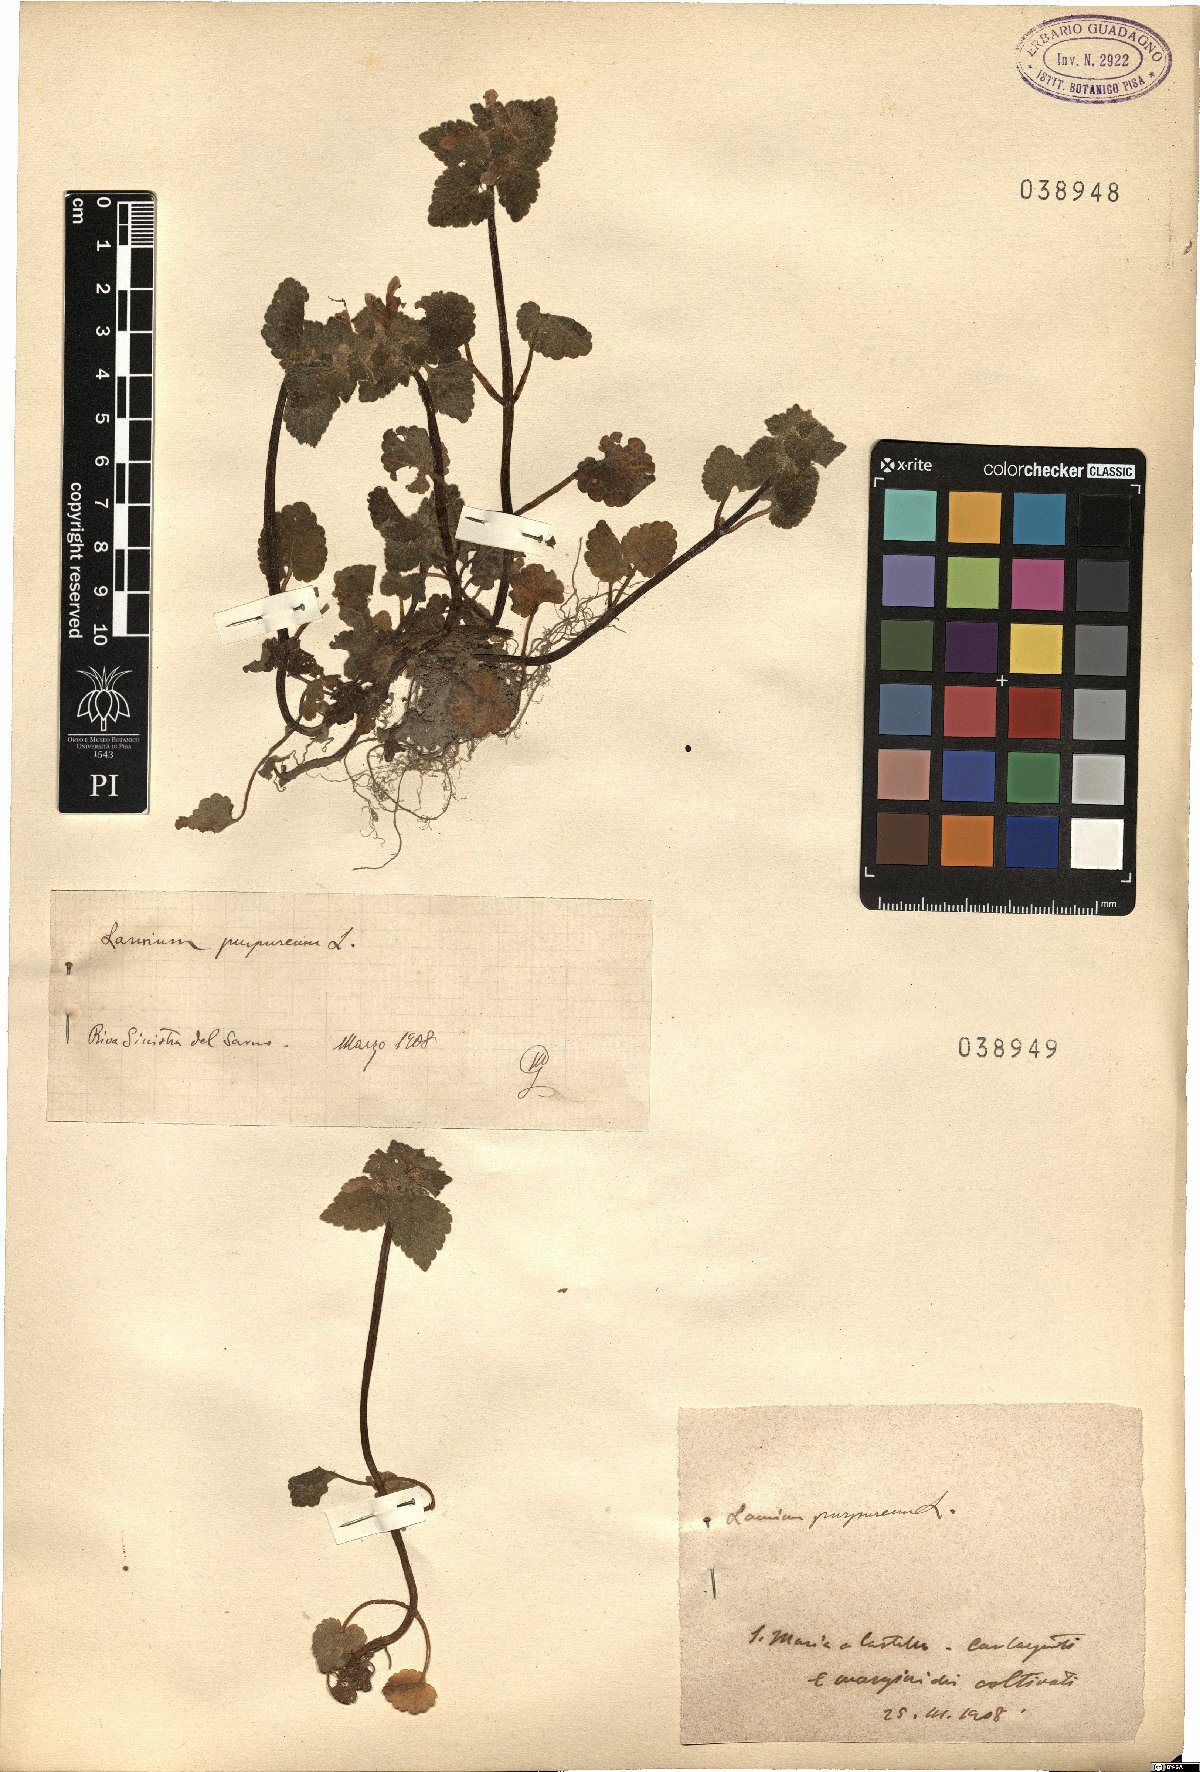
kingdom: Plantae
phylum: Tracheophyta
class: Magnoliopsida
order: Lamiales
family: Lamiaceae
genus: Lamium
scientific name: Lamium purpureum
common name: Red dead-nettle
